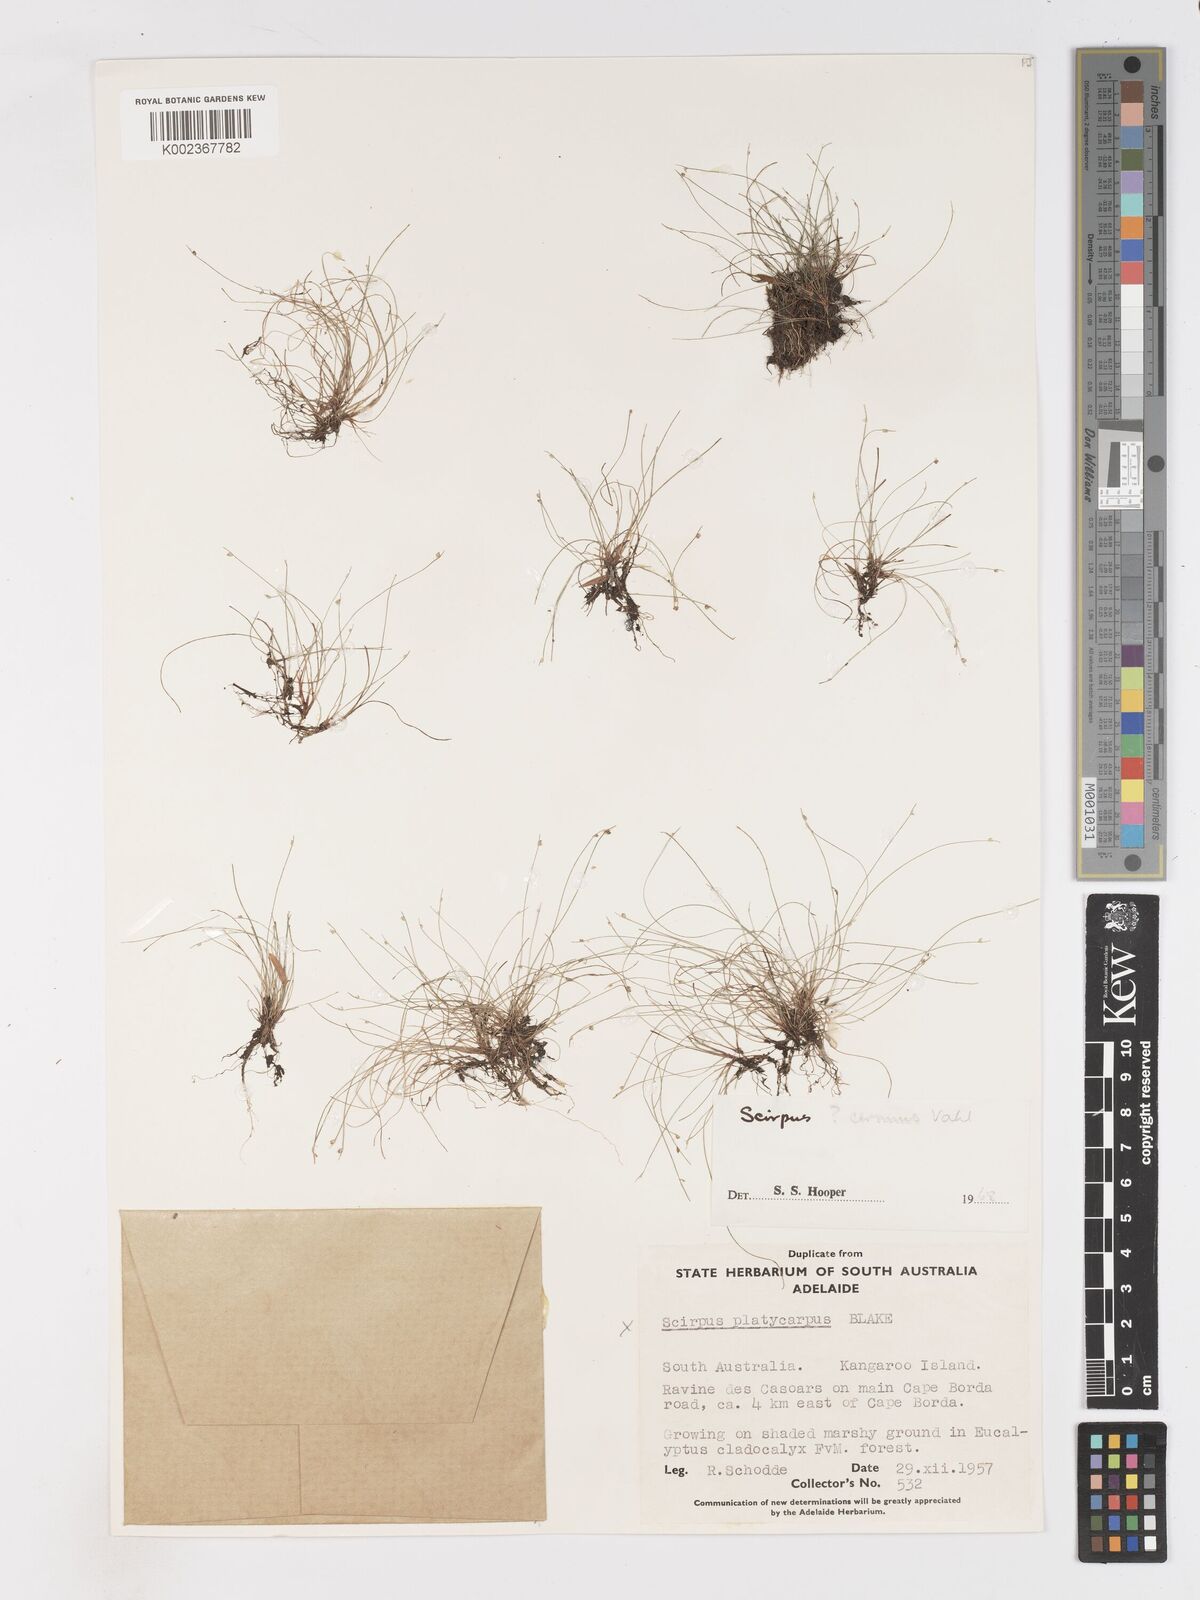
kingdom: Plantae
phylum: Tracheophyta
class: Liliopsida
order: Poales
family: Cyperaceae
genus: Isolepis
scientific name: Isolepis cernua
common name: Slender club-rush
